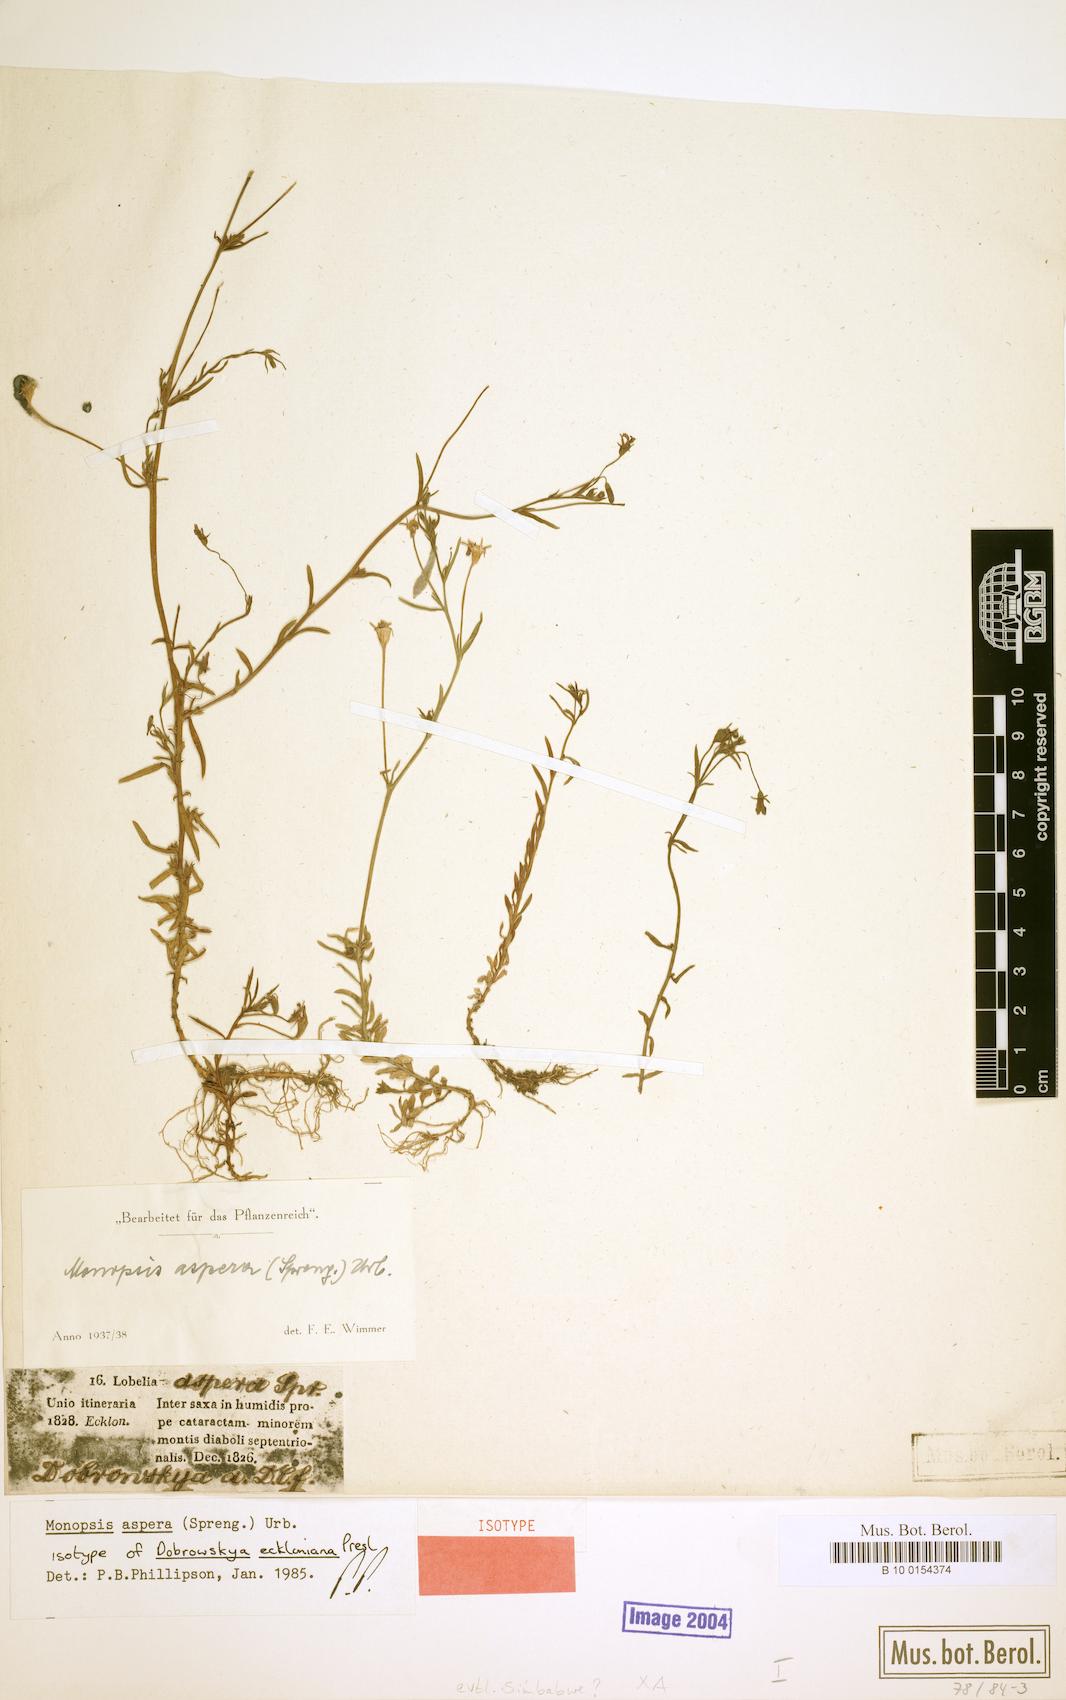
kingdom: Plantae
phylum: Tracheophyta
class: Magnoliopsida
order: Asterales
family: Campanulaceae
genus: Monopsis
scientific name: Monopsis simplex
